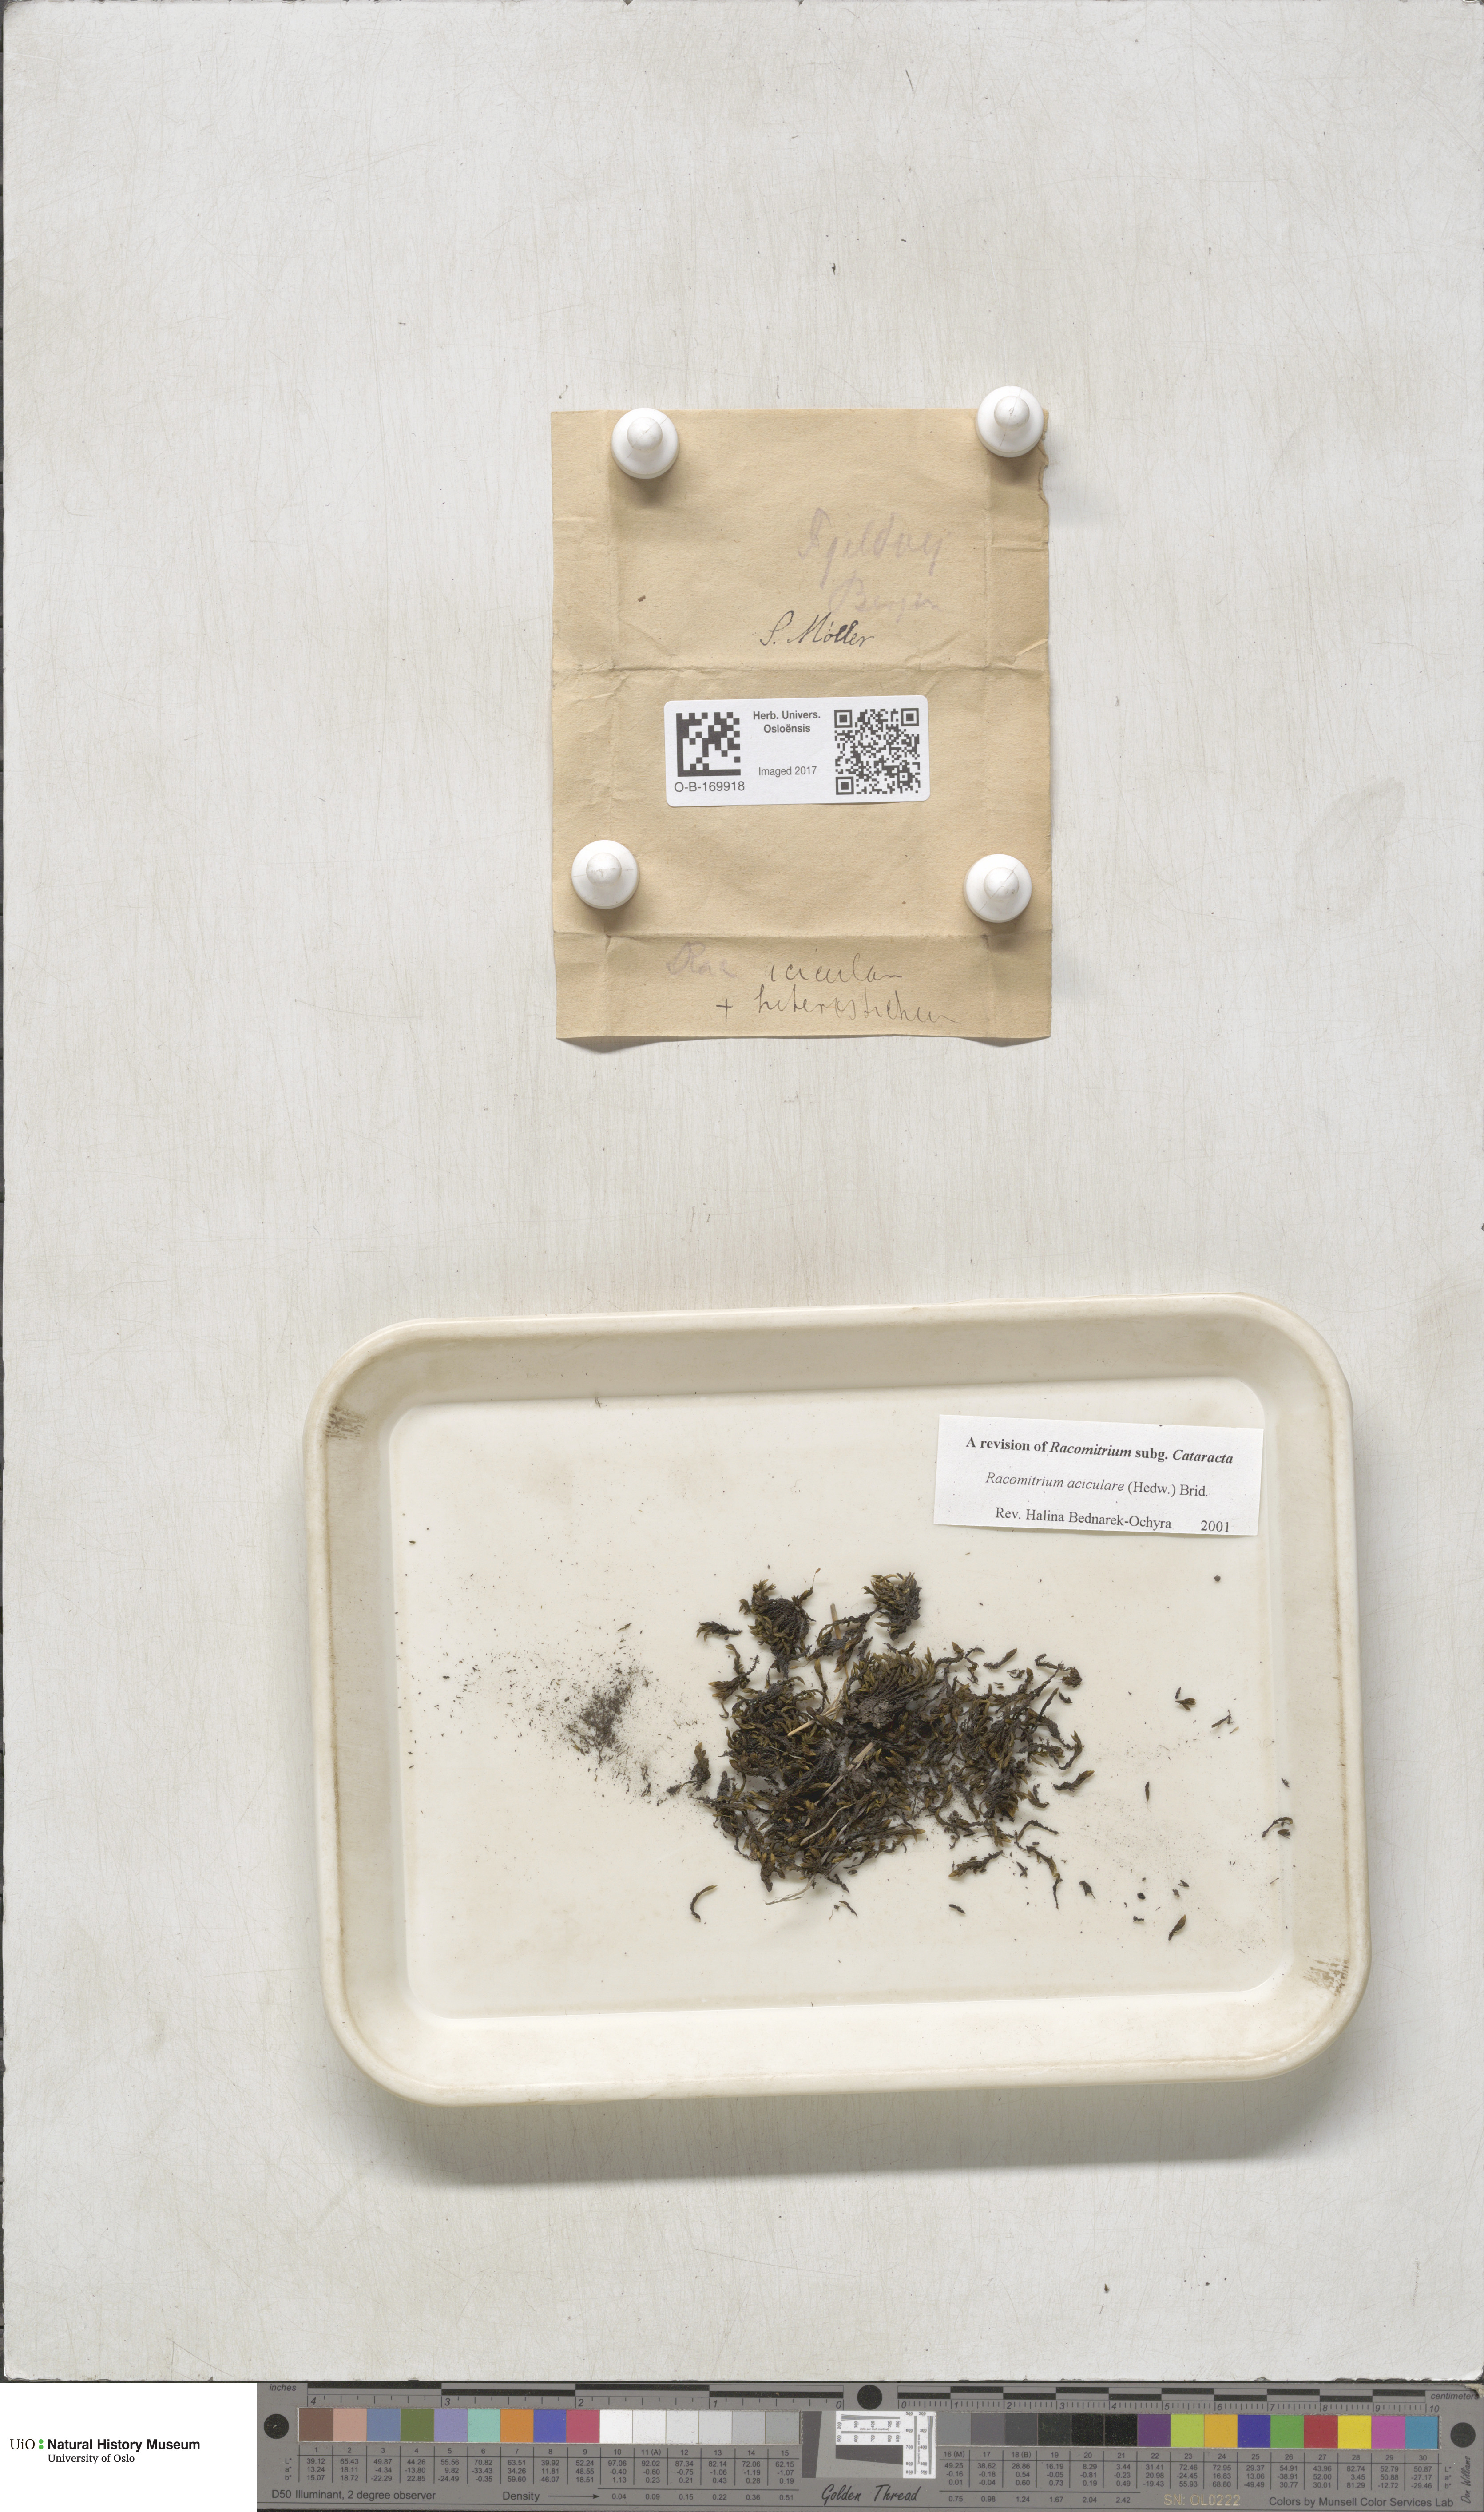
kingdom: Plantae
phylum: Bryophyta
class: Bryopsida
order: Grimmiales
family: Grimmiaceae
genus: Codriophorus
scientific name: Codriophorus acicularis
